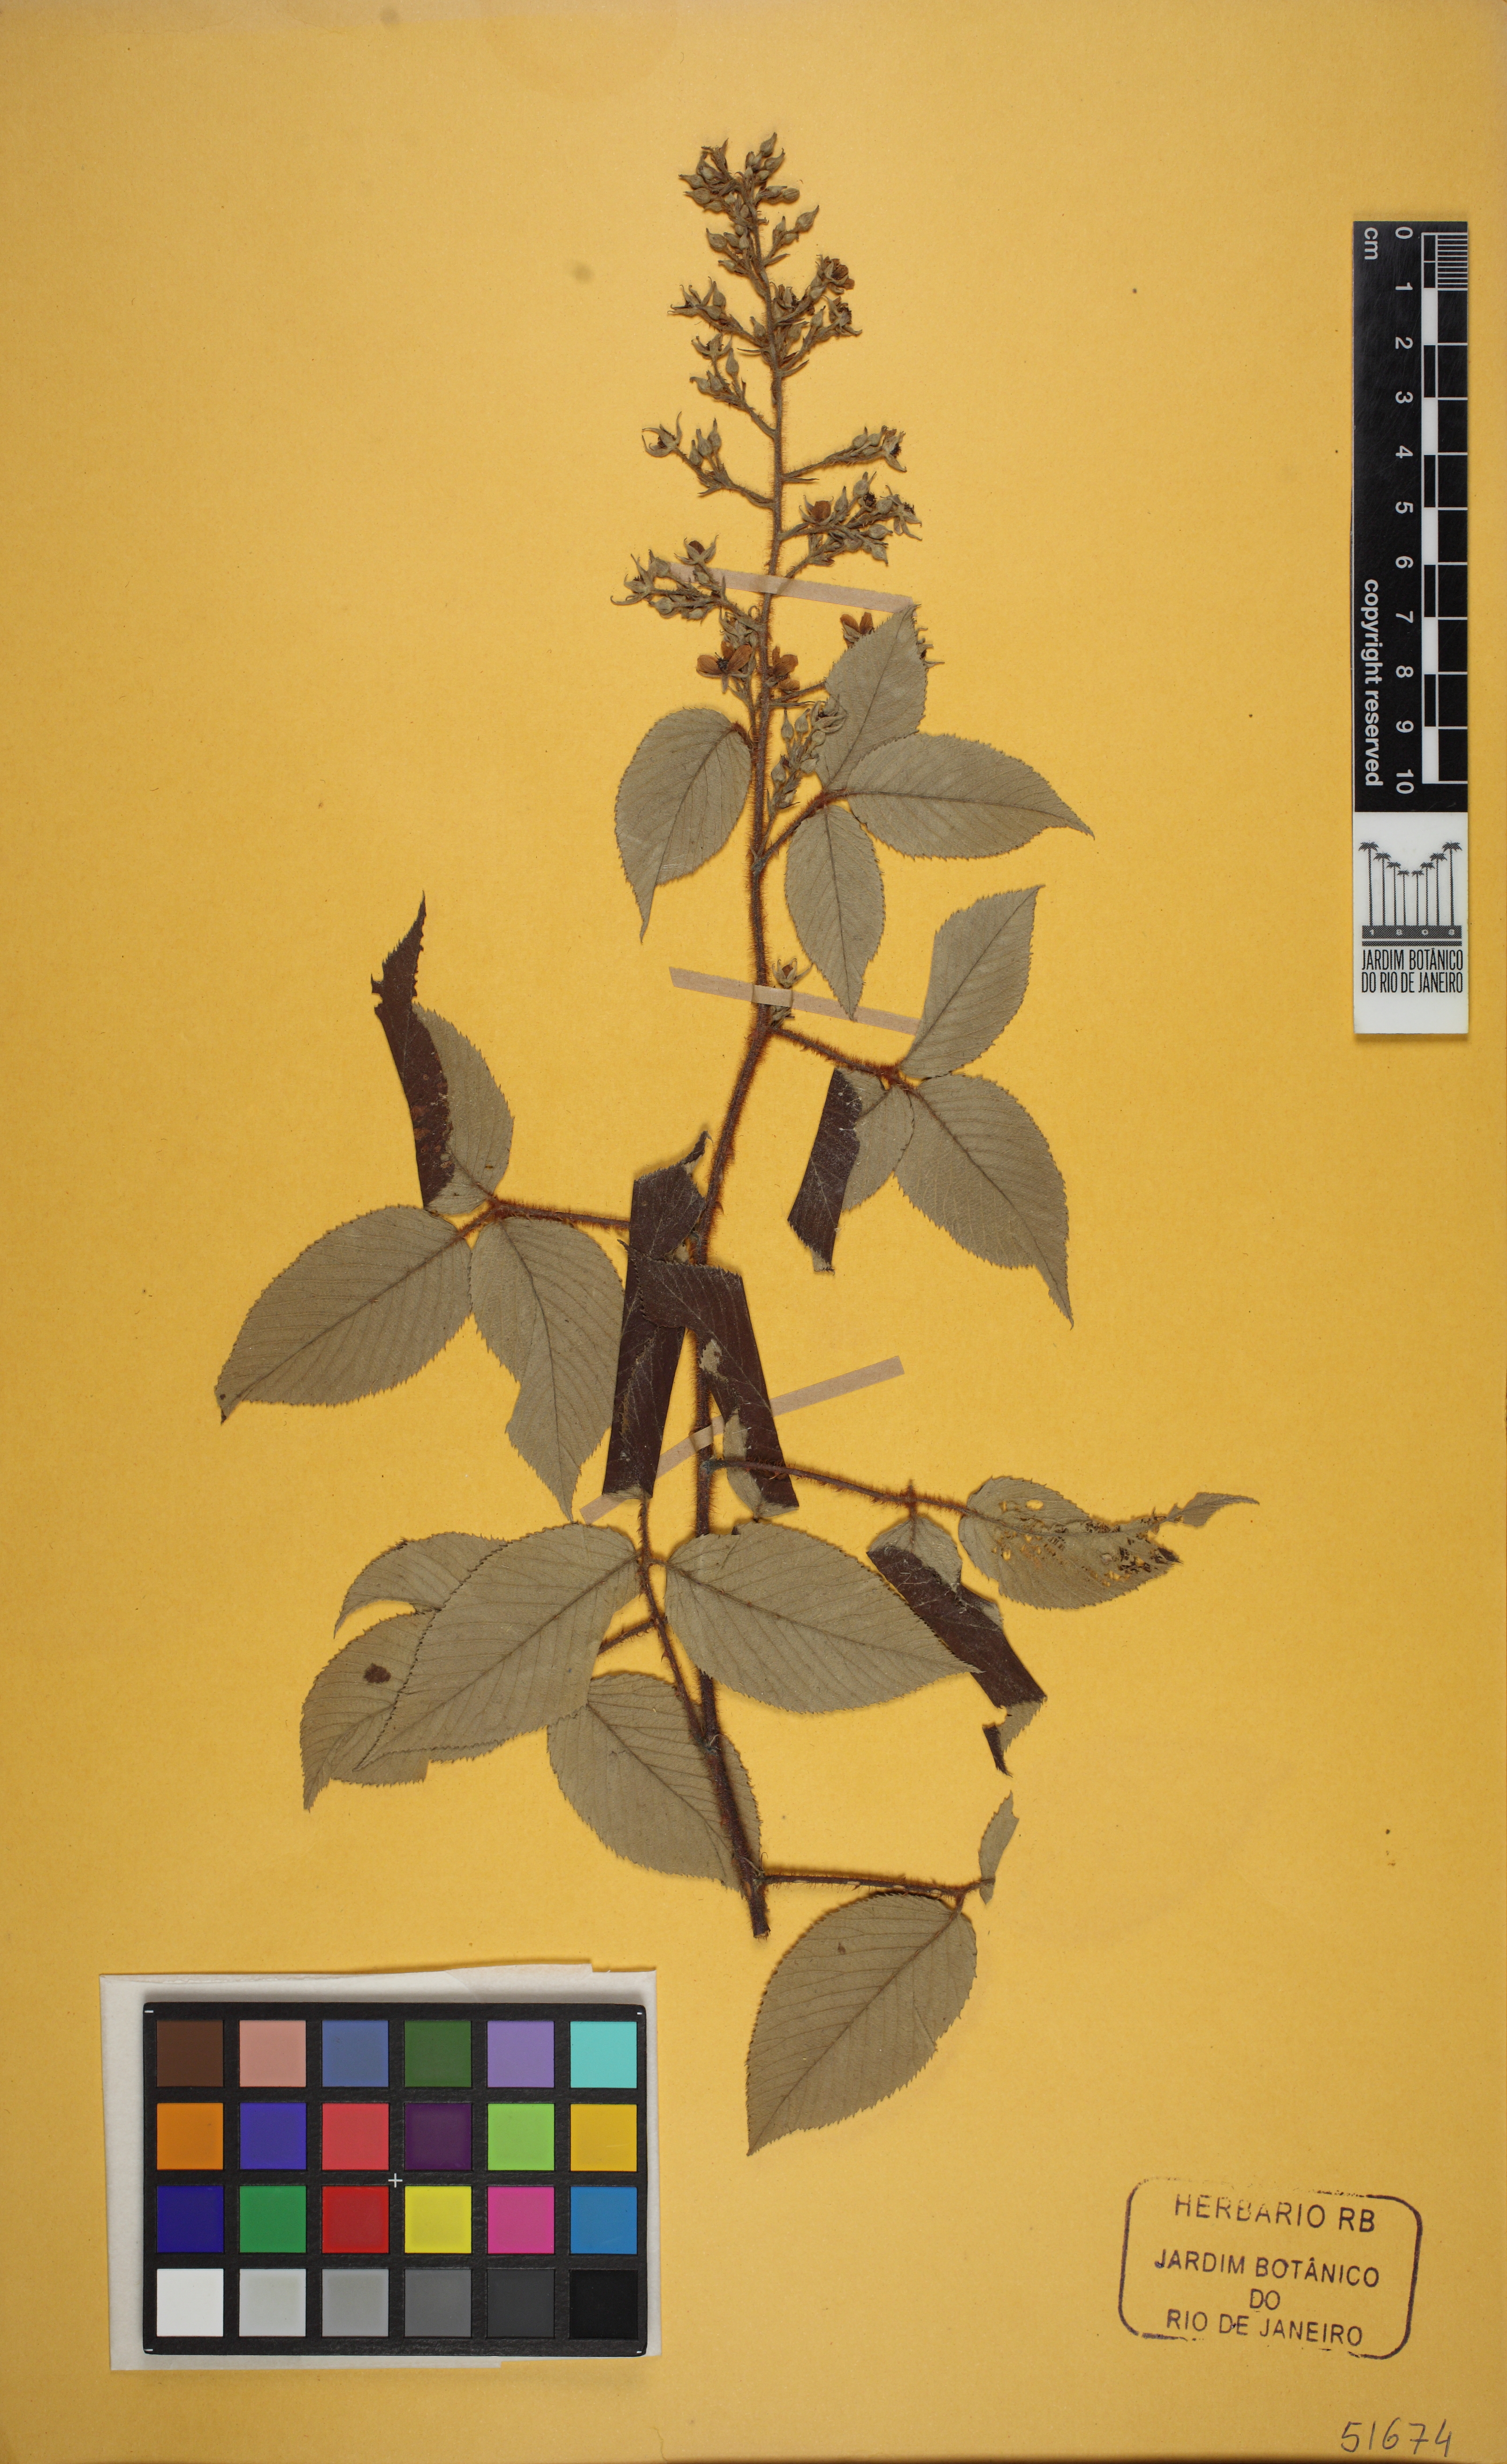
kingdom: Plantae
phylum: Tracheophyta
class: Magnoliopsida
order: Rosales
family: Rosaceae
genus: Rubus
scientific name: Rubus urticifolius
